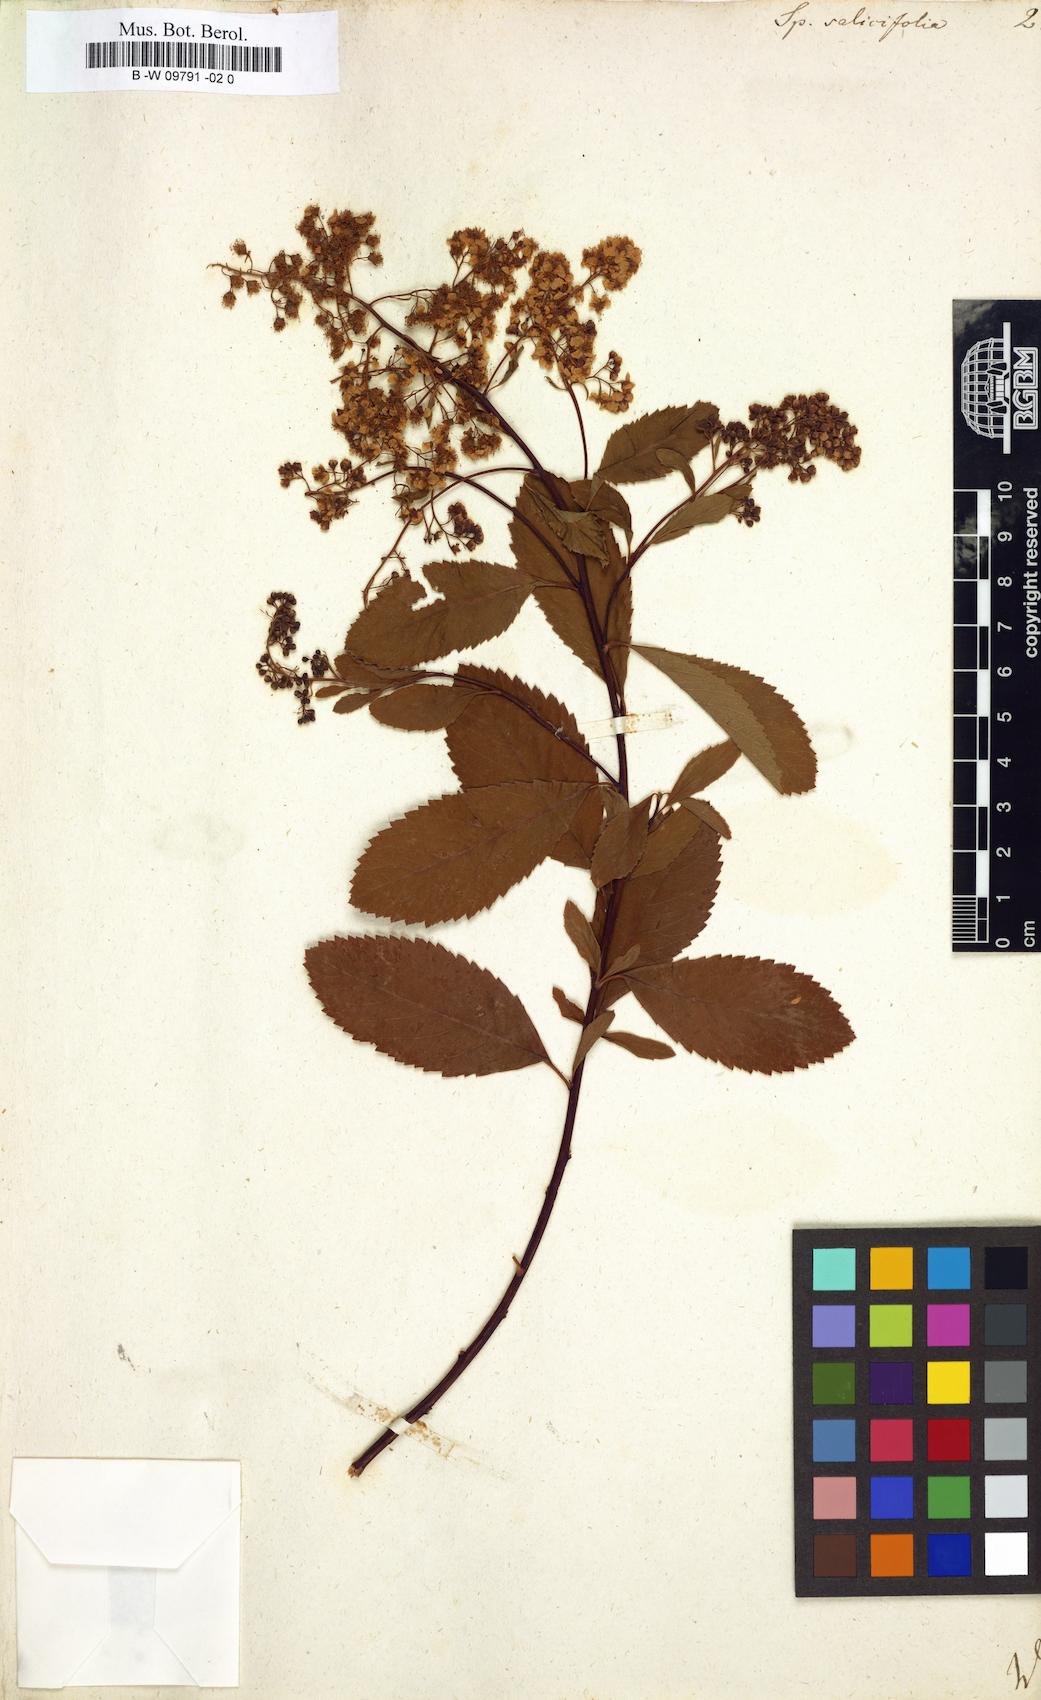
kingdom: Plantae
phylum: Tracheophyta
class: Magnoliopsida
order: Rosales
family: Rosaceae
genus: Spiraea
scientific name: Spiraea salicifolia
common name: Bridewort
